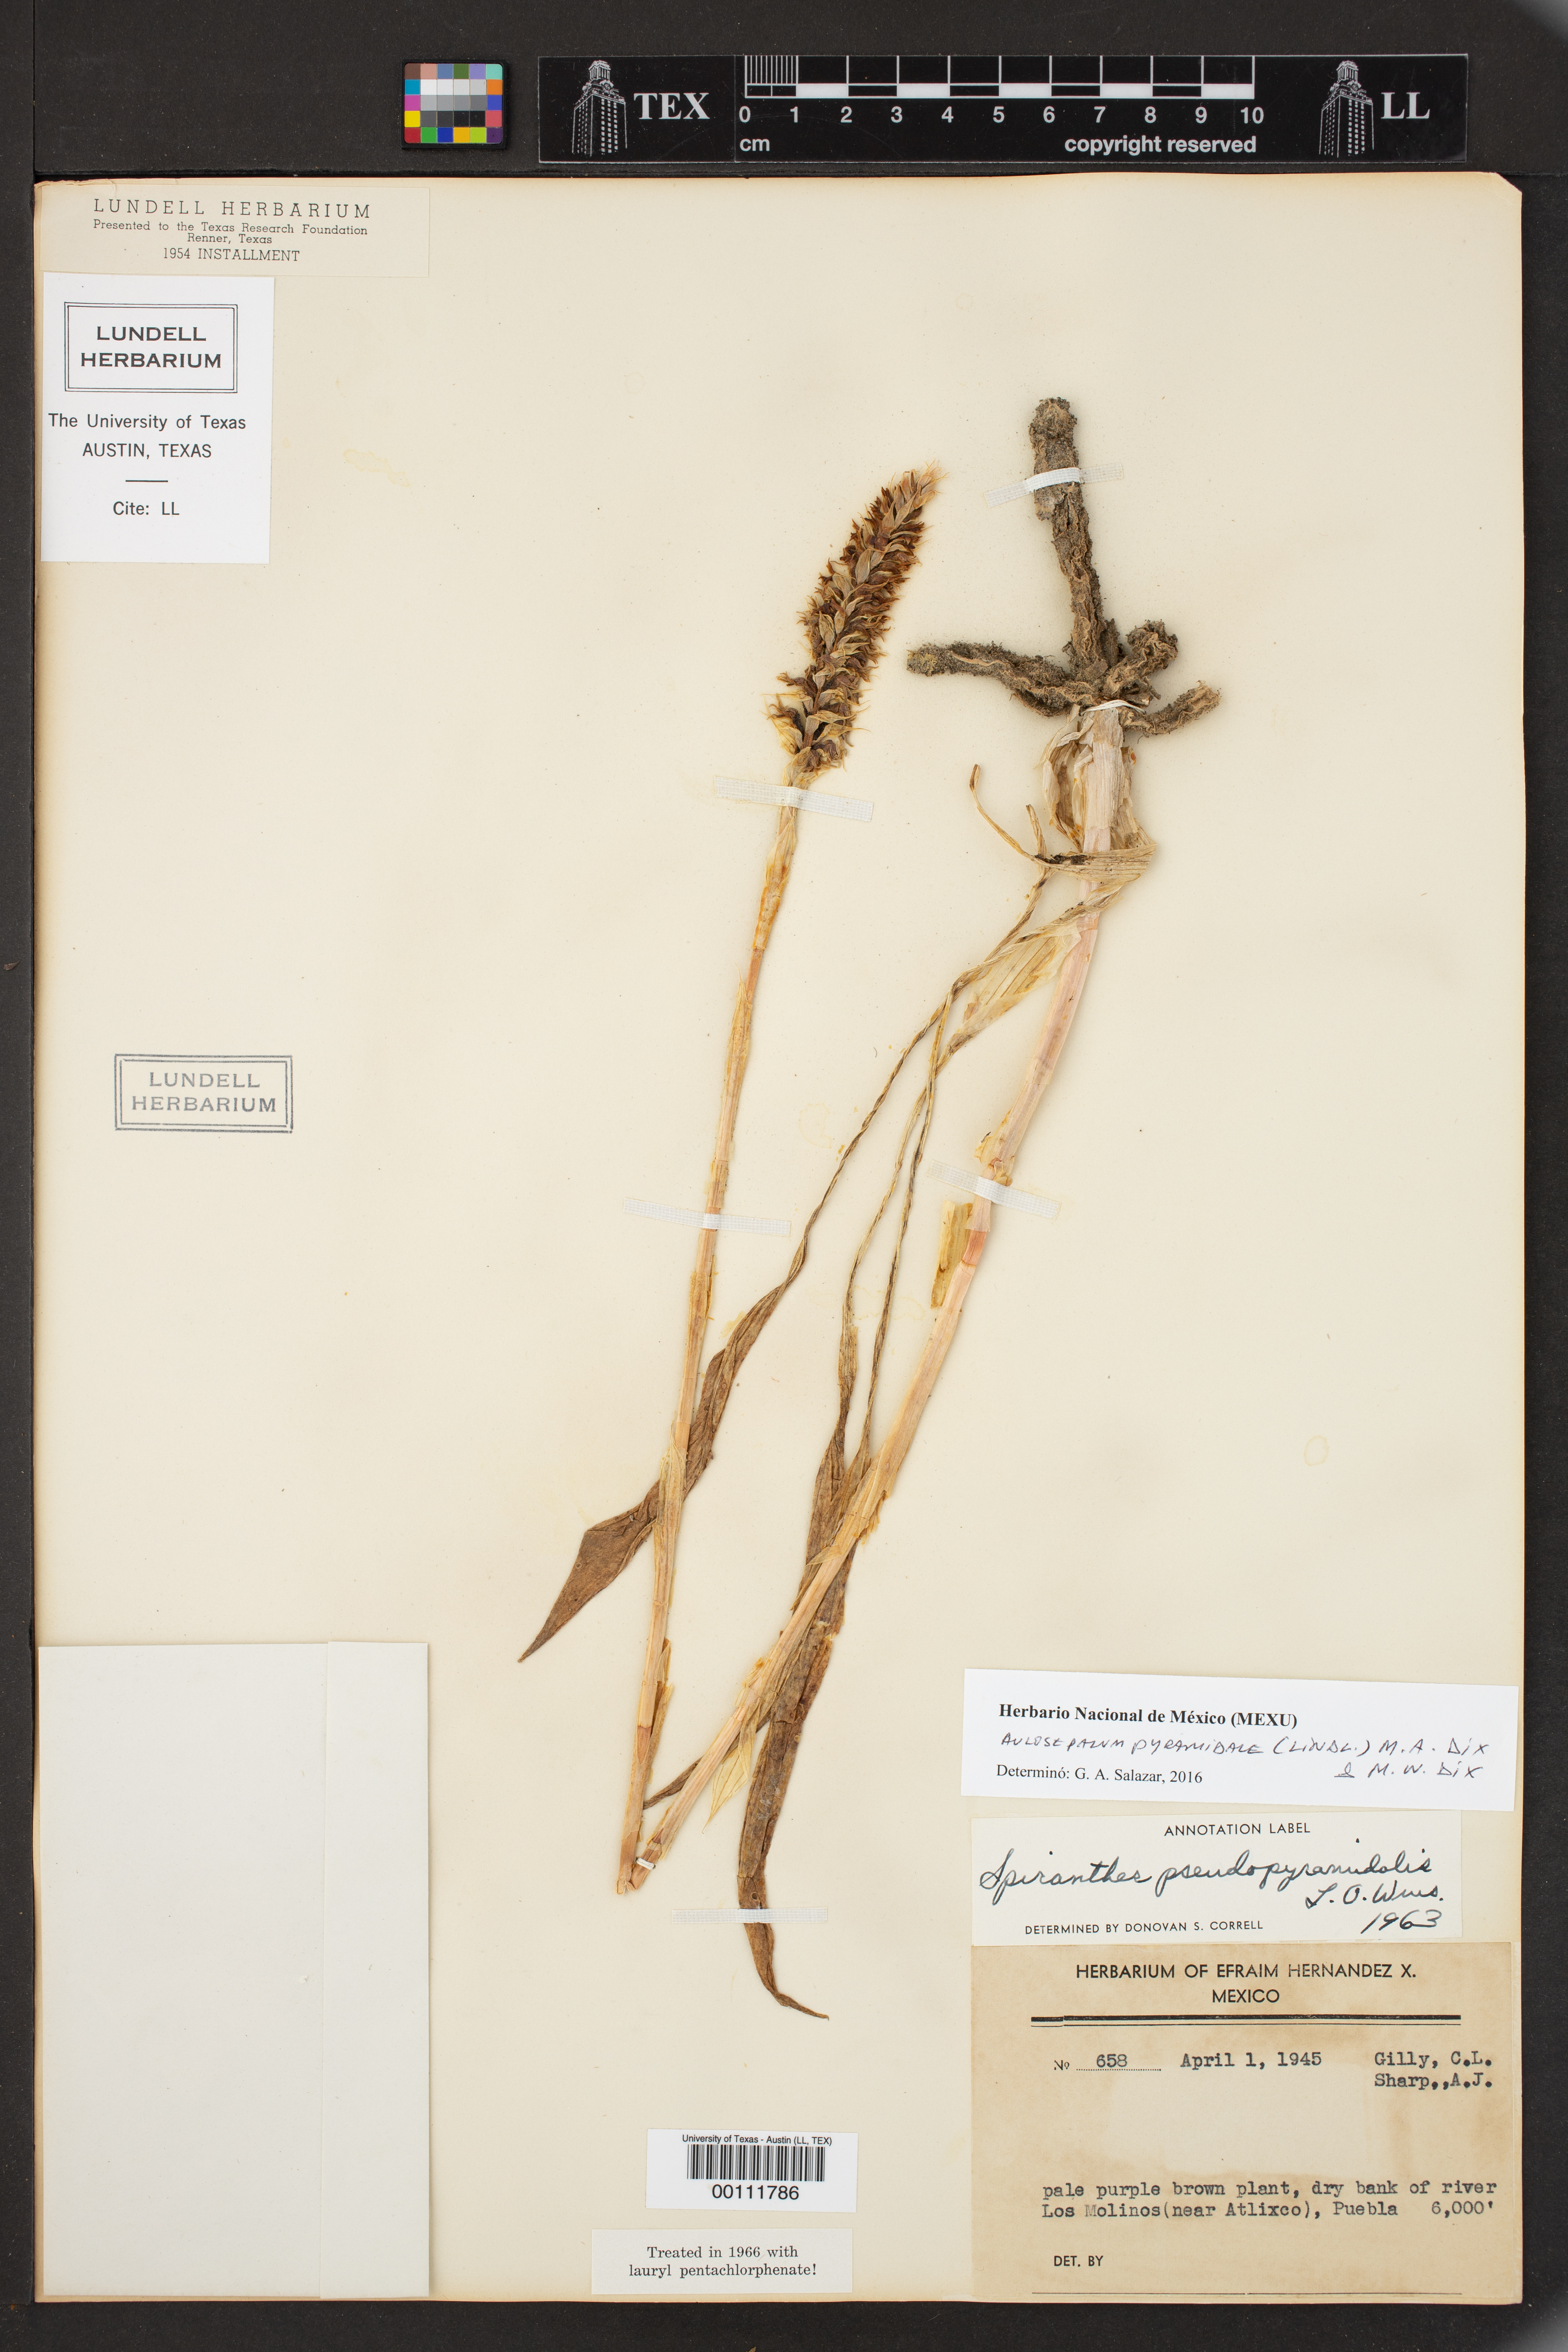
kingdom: Plantae
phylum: Tracheophyta
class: Liliopsida
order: Asparagales
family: Orchidaceae
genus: Aulosepalum
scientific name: Aulosepalum pyramidale
